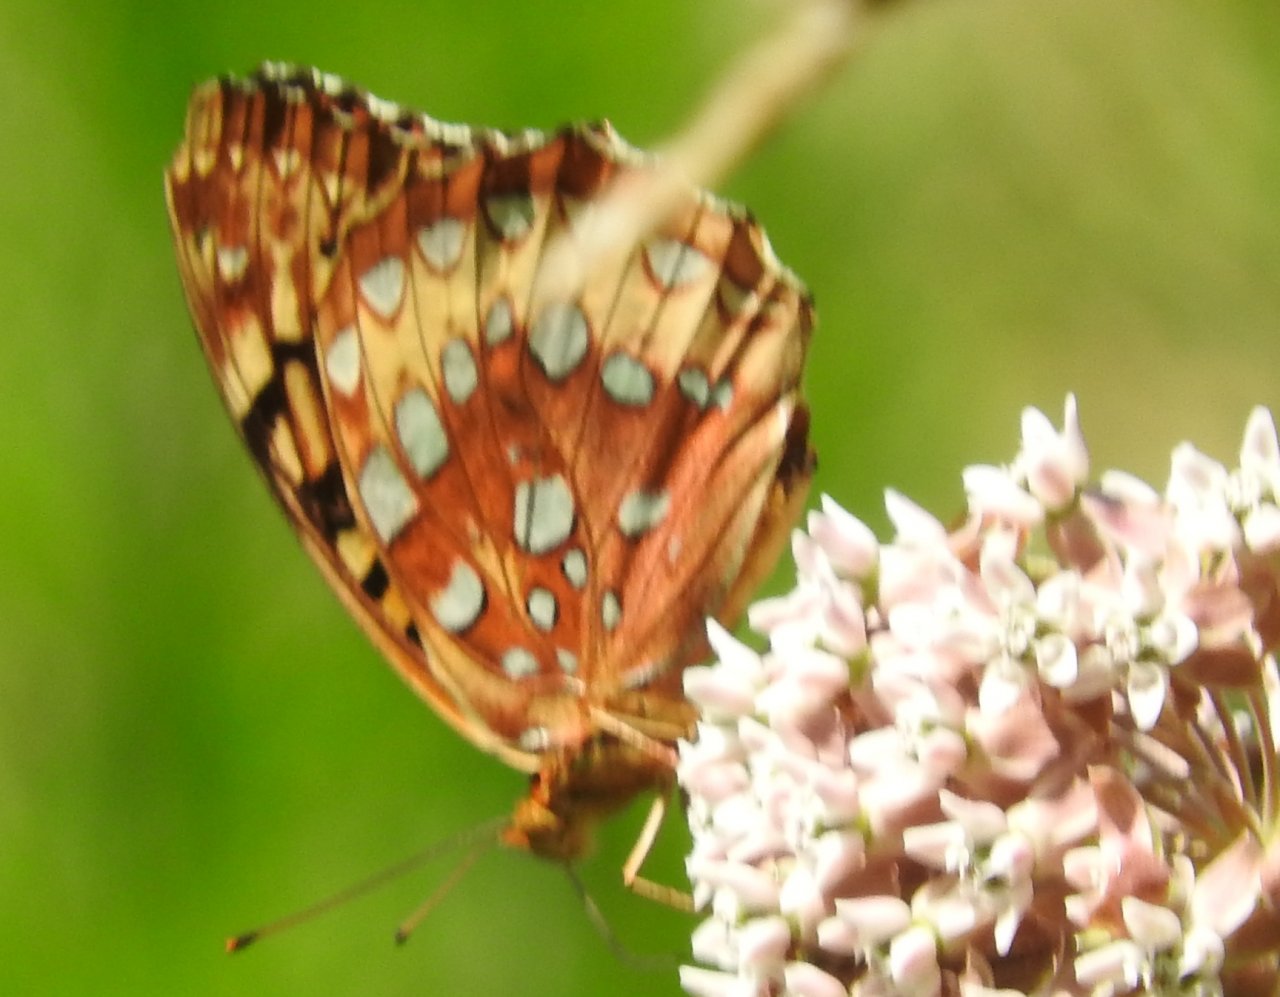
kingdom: Animalia
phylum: Arthropoda
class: Insecta
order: Lepidoptera
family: Nymphalidae
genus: Speyeria
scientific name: Speyeria cybele
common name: Great Spangled Fritillary
